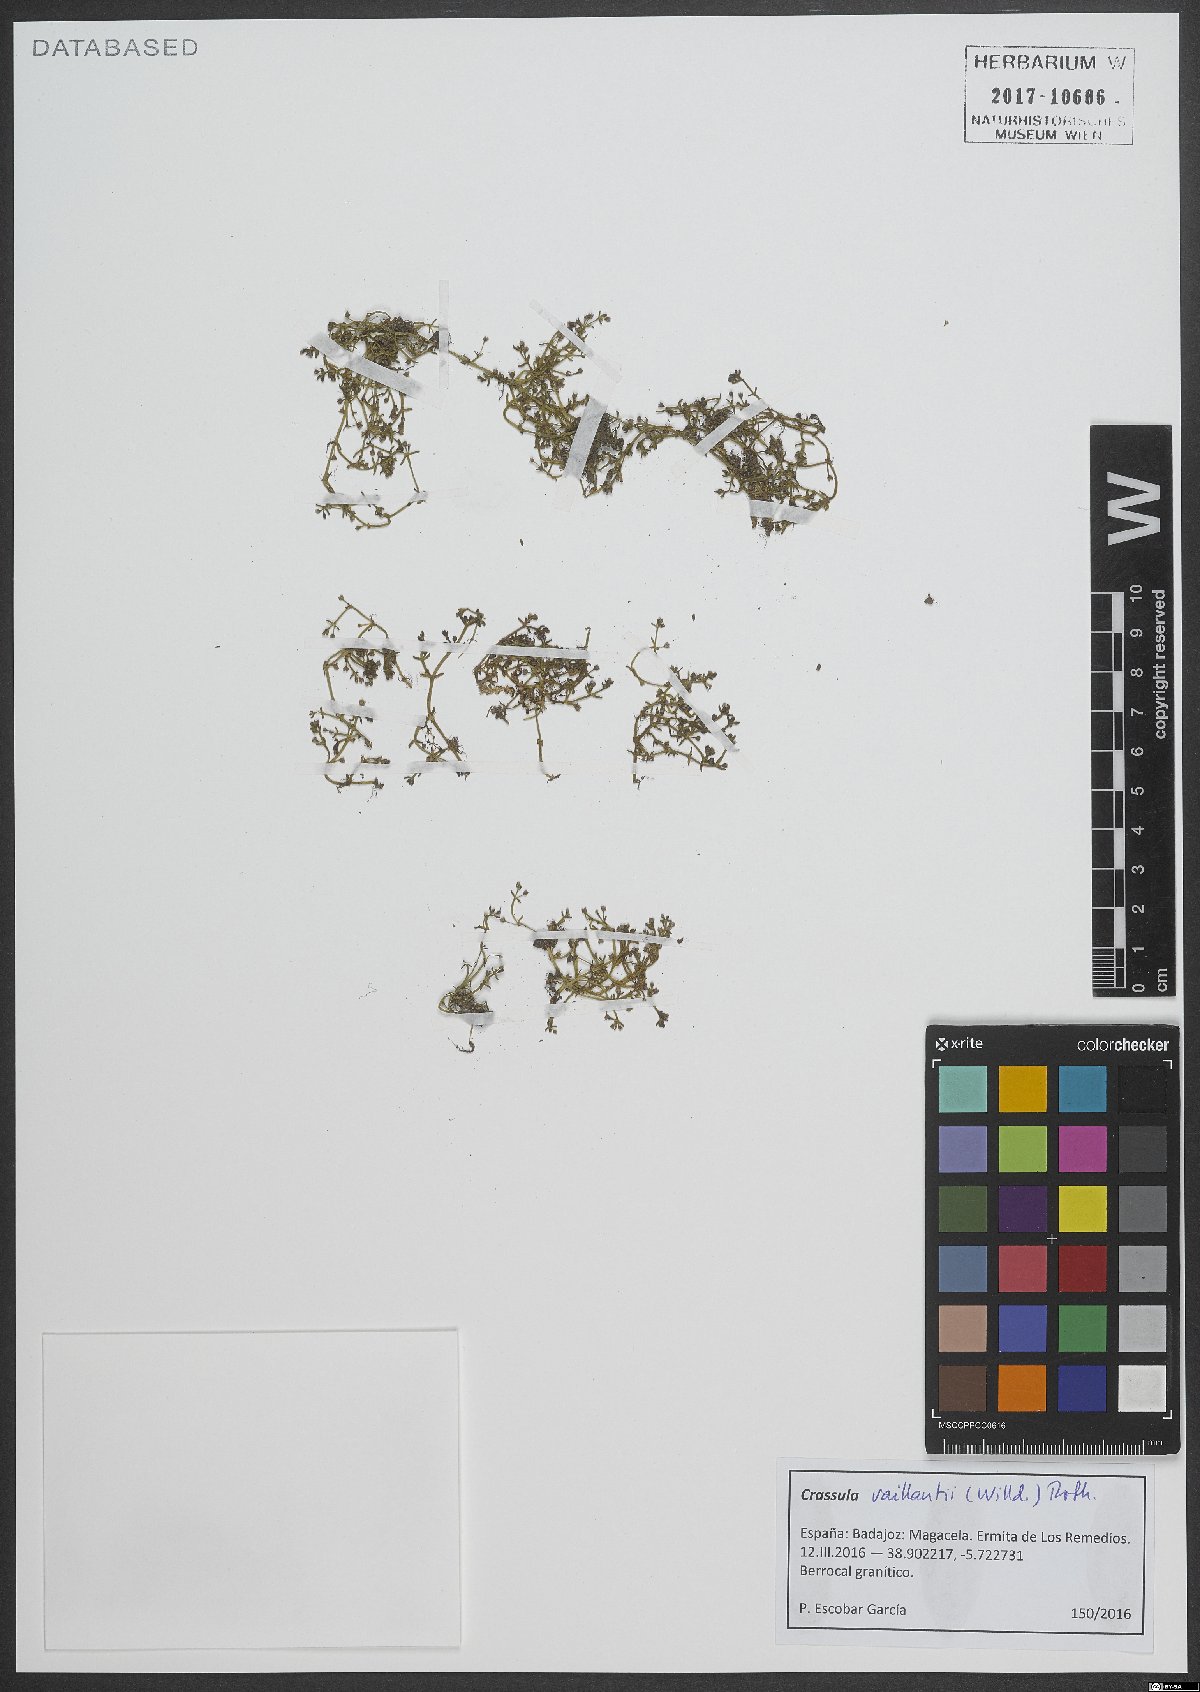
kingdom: Plantae
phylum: Tracheophyta
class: Magnoliopsida
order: Saxifragales
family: Crassulaceae
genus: Crassula
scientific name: Crassula vaillantii
